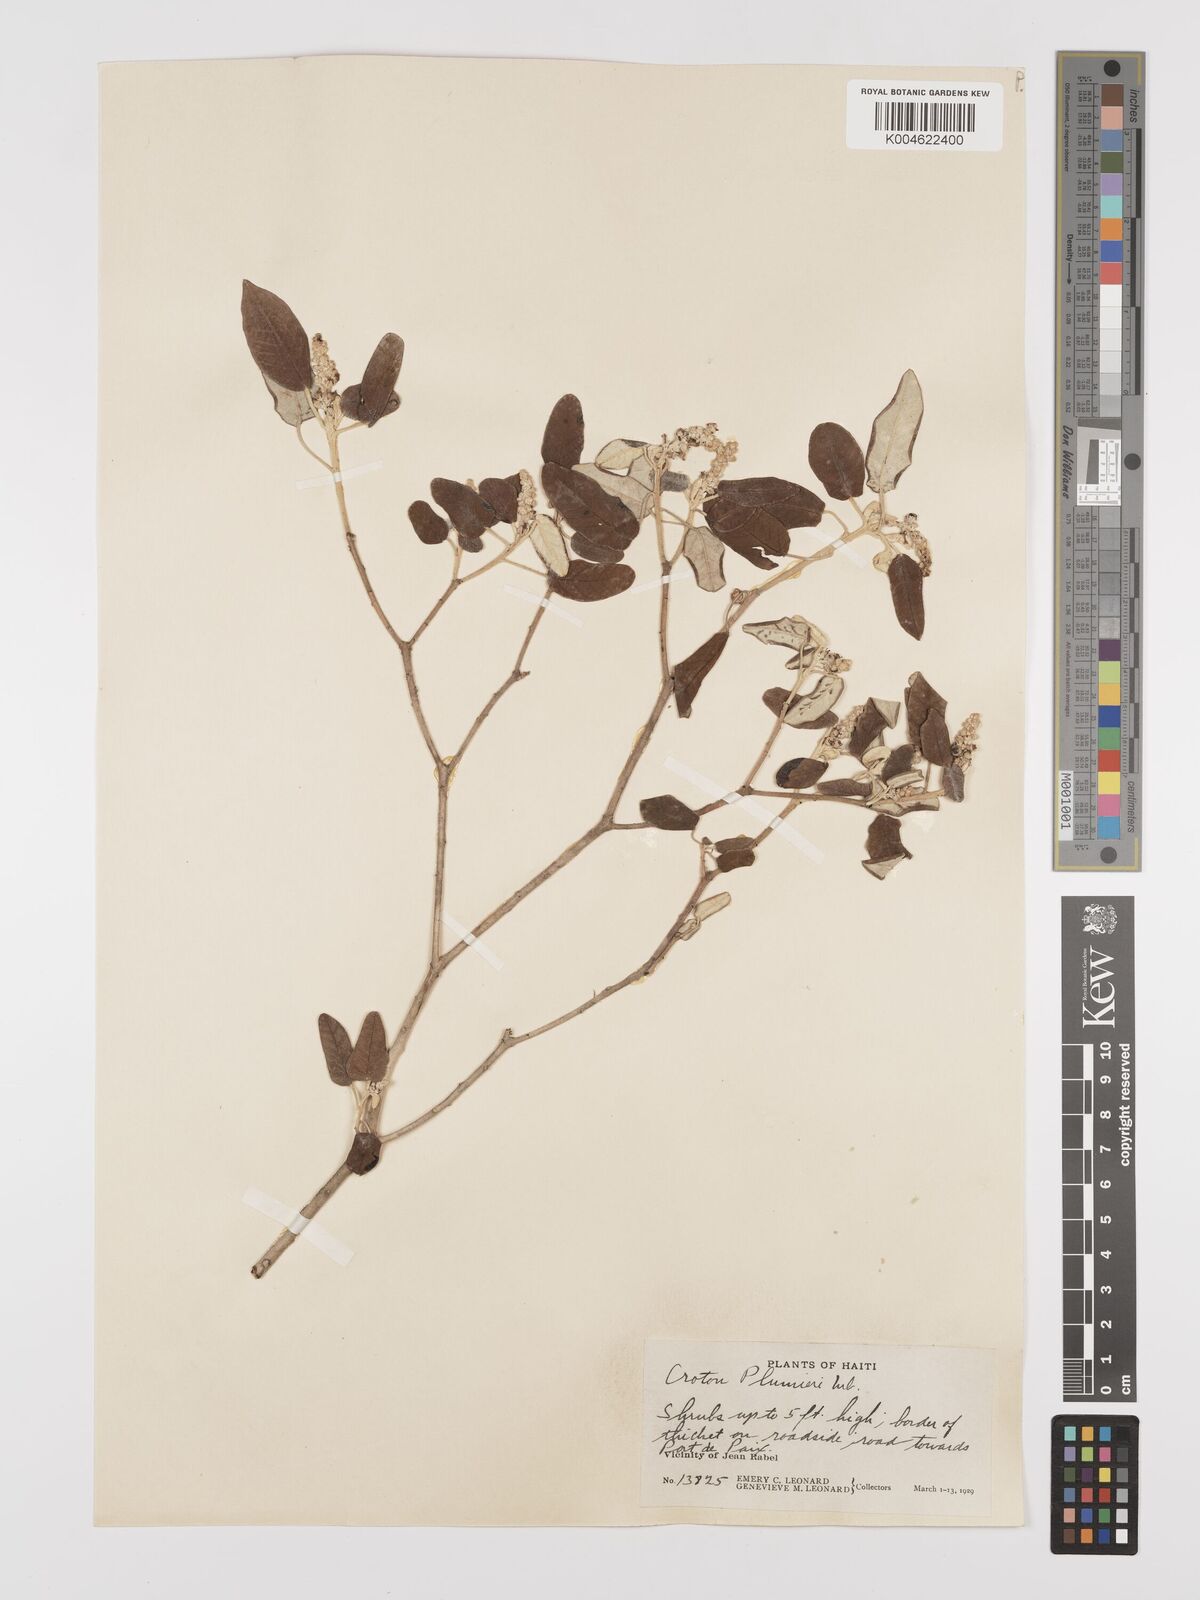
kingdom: Plantae
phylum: Tracheophyta
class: Magnoliopsida
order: Malpighiales
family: Euphorbiaceae
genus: Croton
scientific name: Croton vaillantii
